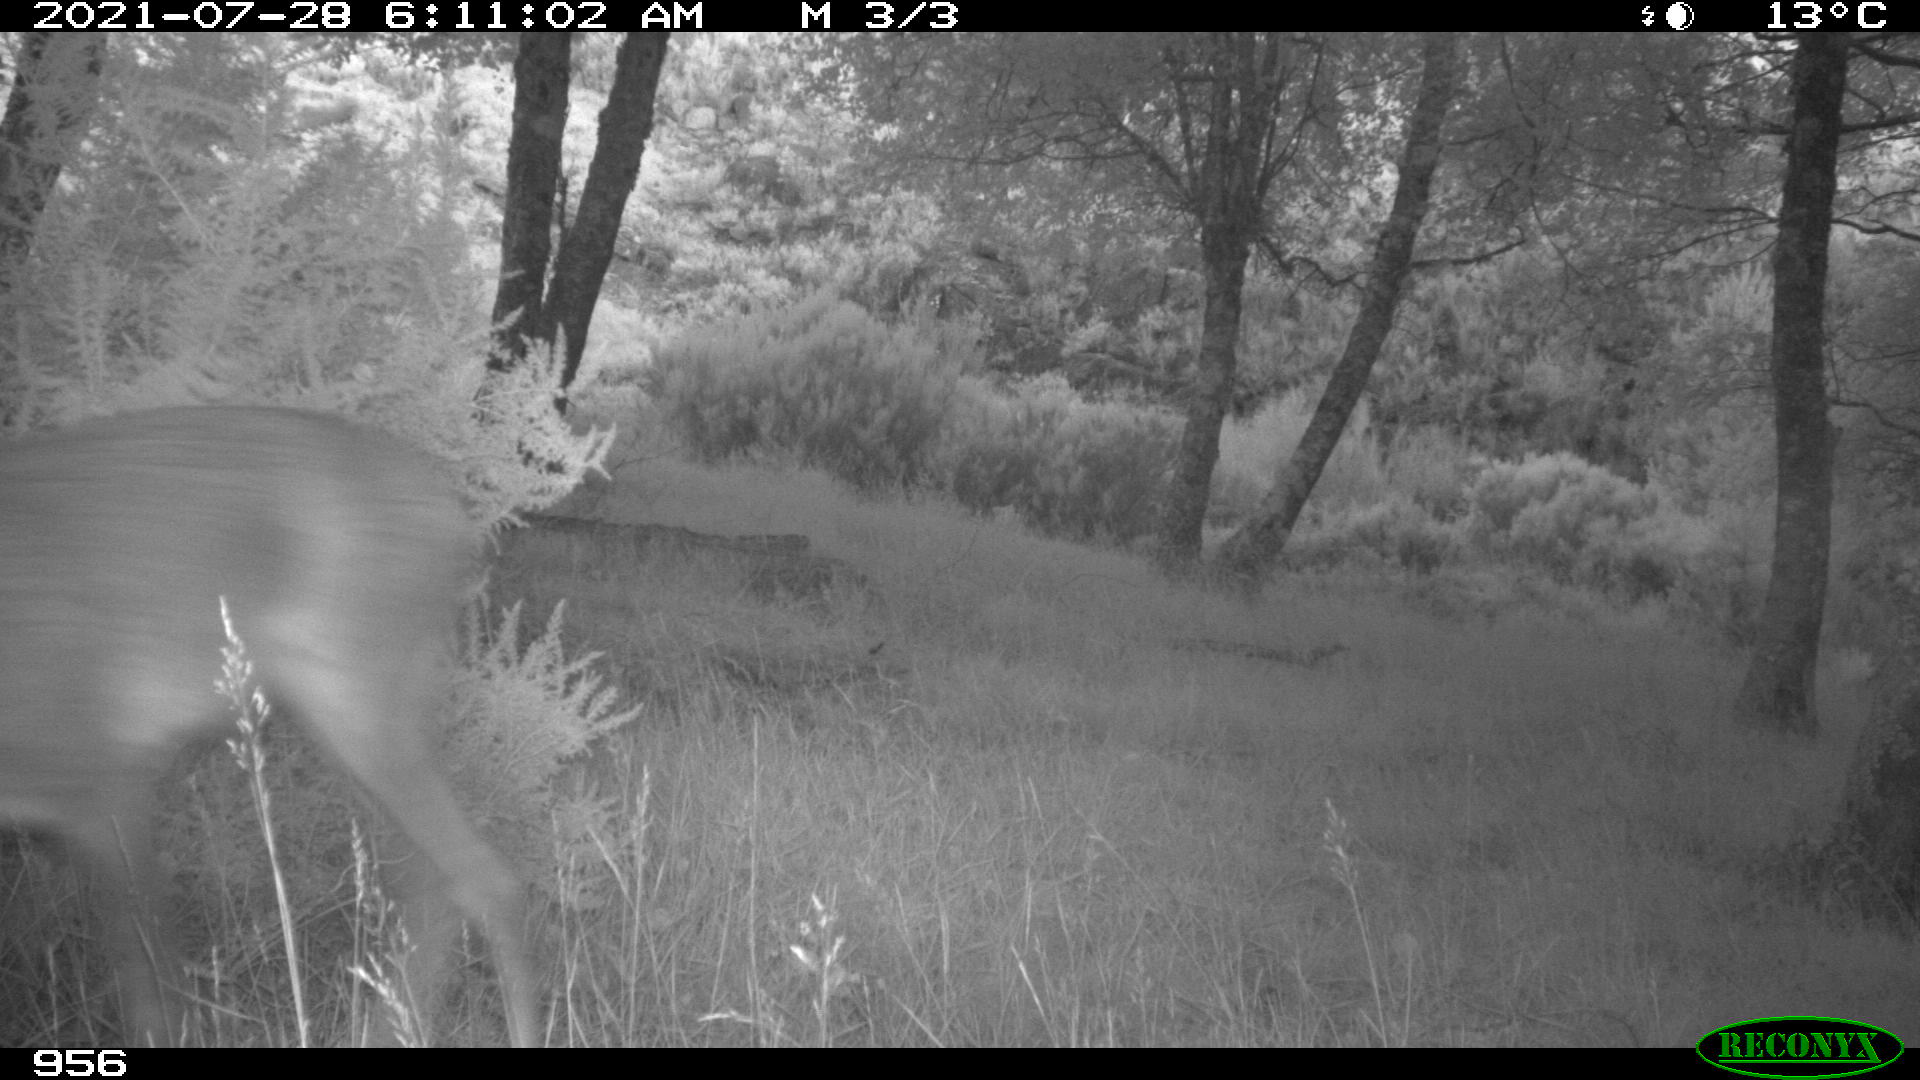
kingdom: Animalia
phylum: Chordata
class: Mammalia
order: Artiodactyla
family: Cervidae
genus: Capreolus
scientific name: Capreolus capreolus
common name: Western roe deer
